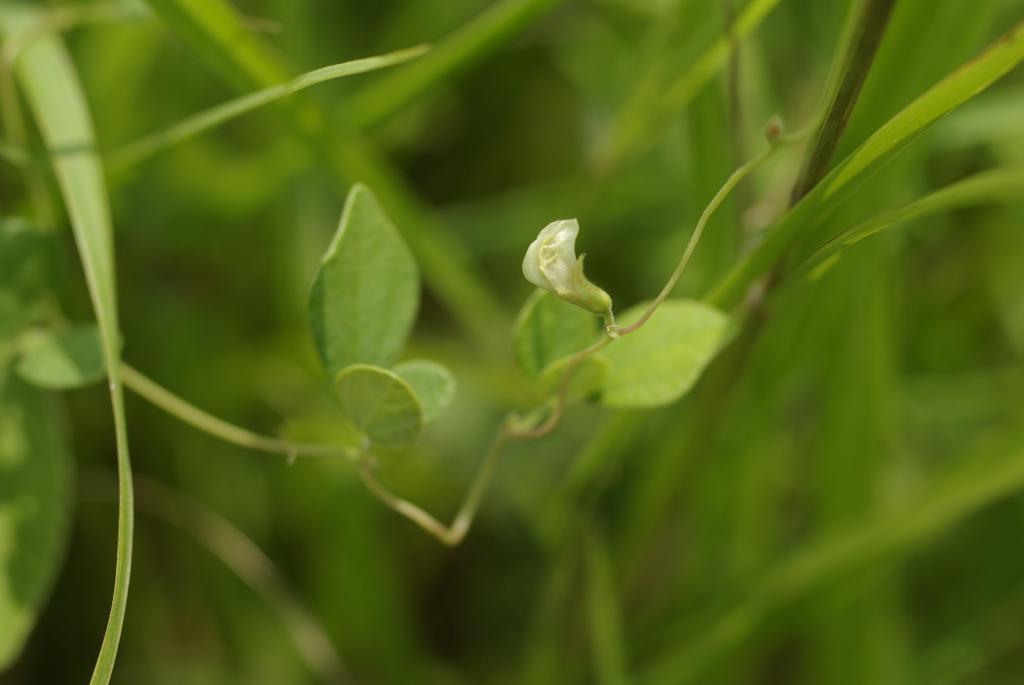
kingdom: Plantae
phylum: Tracheophyta
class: Magnoliopsida
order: Fabales
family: Fabaceae
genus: Dunbaria
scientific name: Dunbaria punctata
